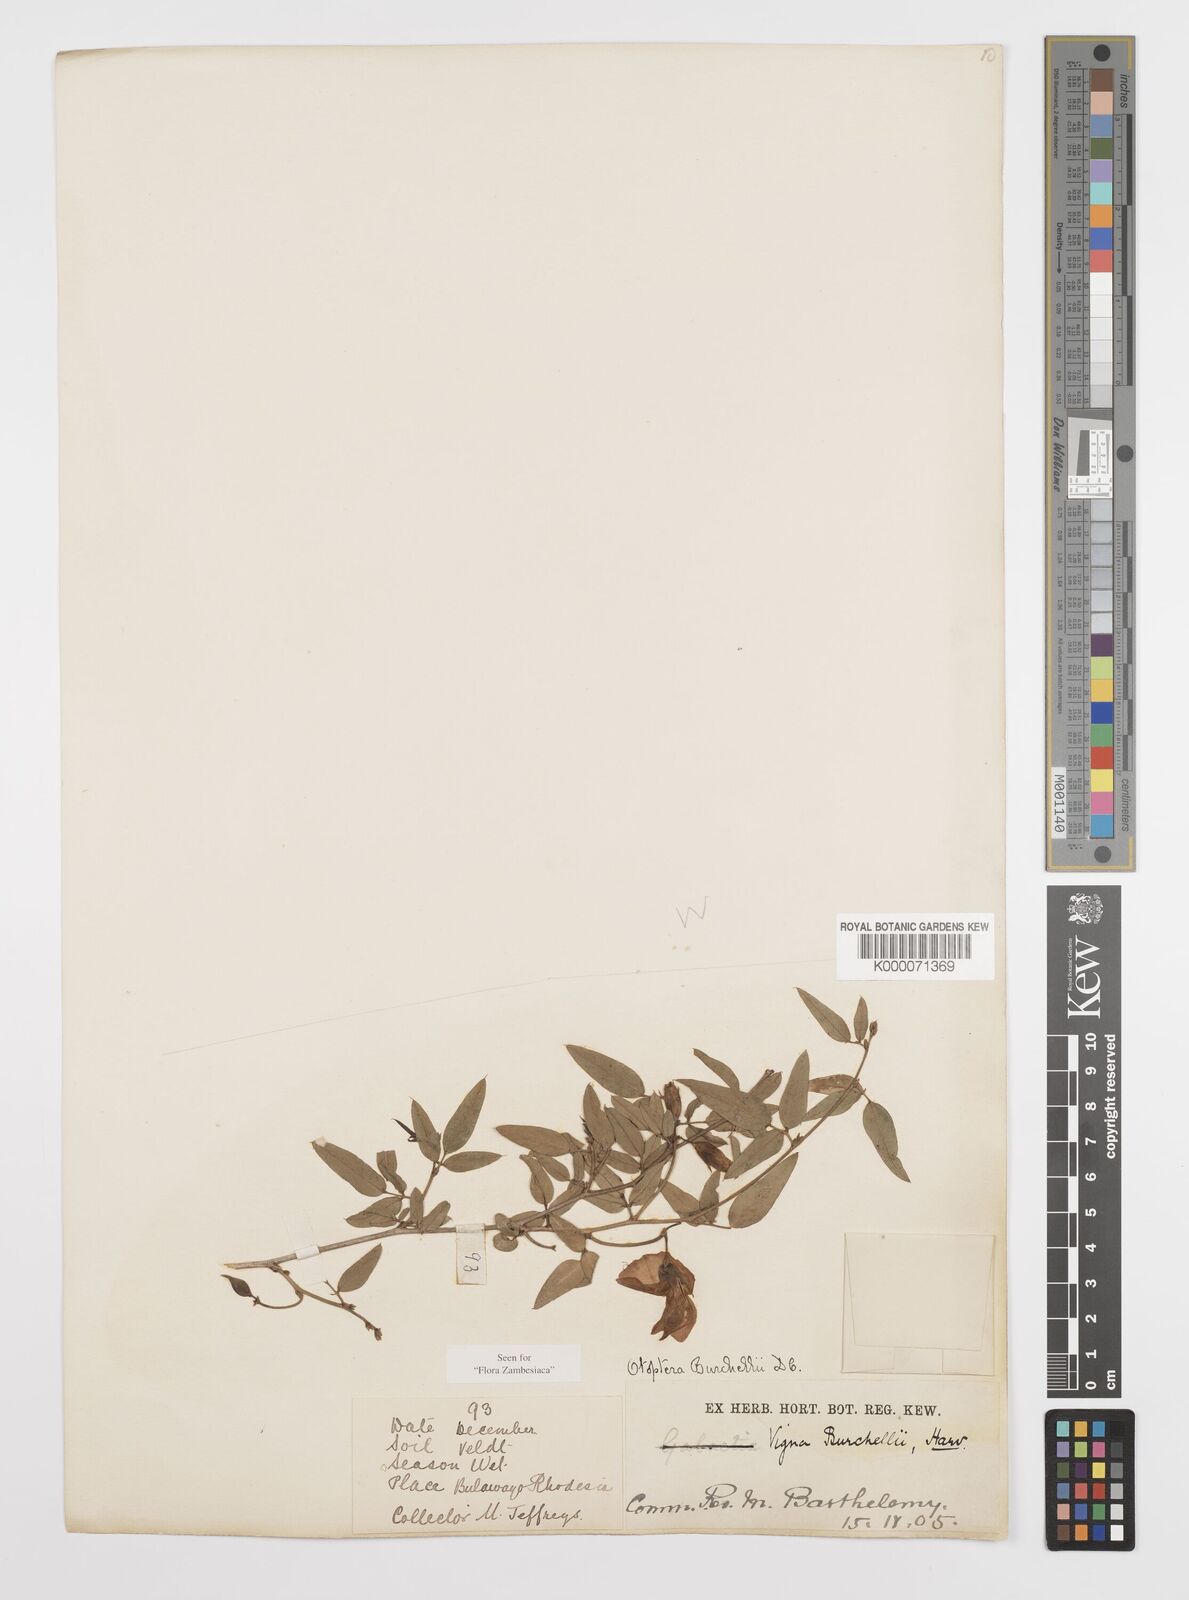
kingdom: Plantae
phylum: Tracheophyta
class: Magnoliopsida
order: Fabales
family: Fabaceae
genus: Otoptera
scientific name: Otoptera burchellii
